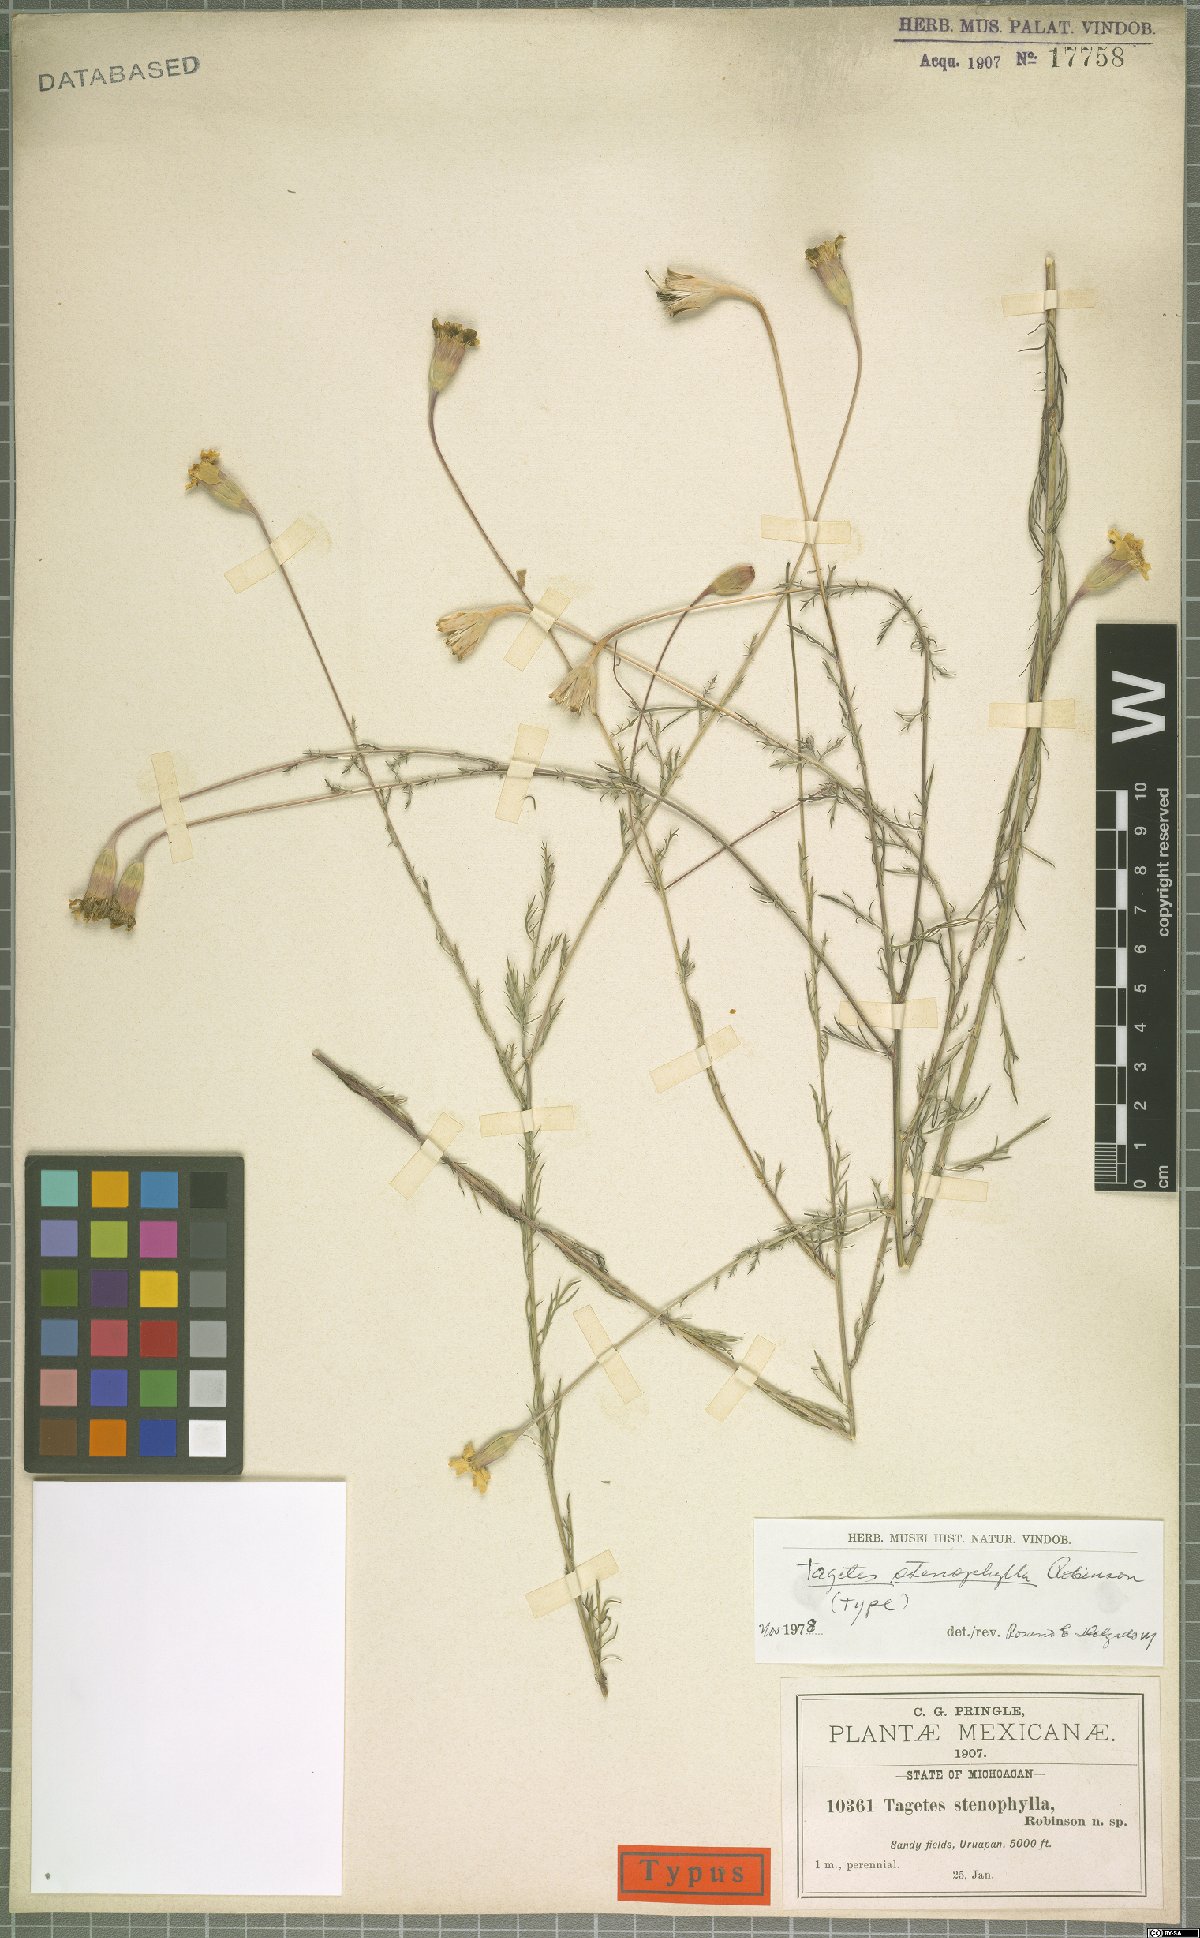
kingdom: Plantae
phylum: Tracheophyta
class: Magnoliopsida
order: Asterales
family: Asteraceae
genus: Tagetes
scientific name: Tagetes stenophylla
